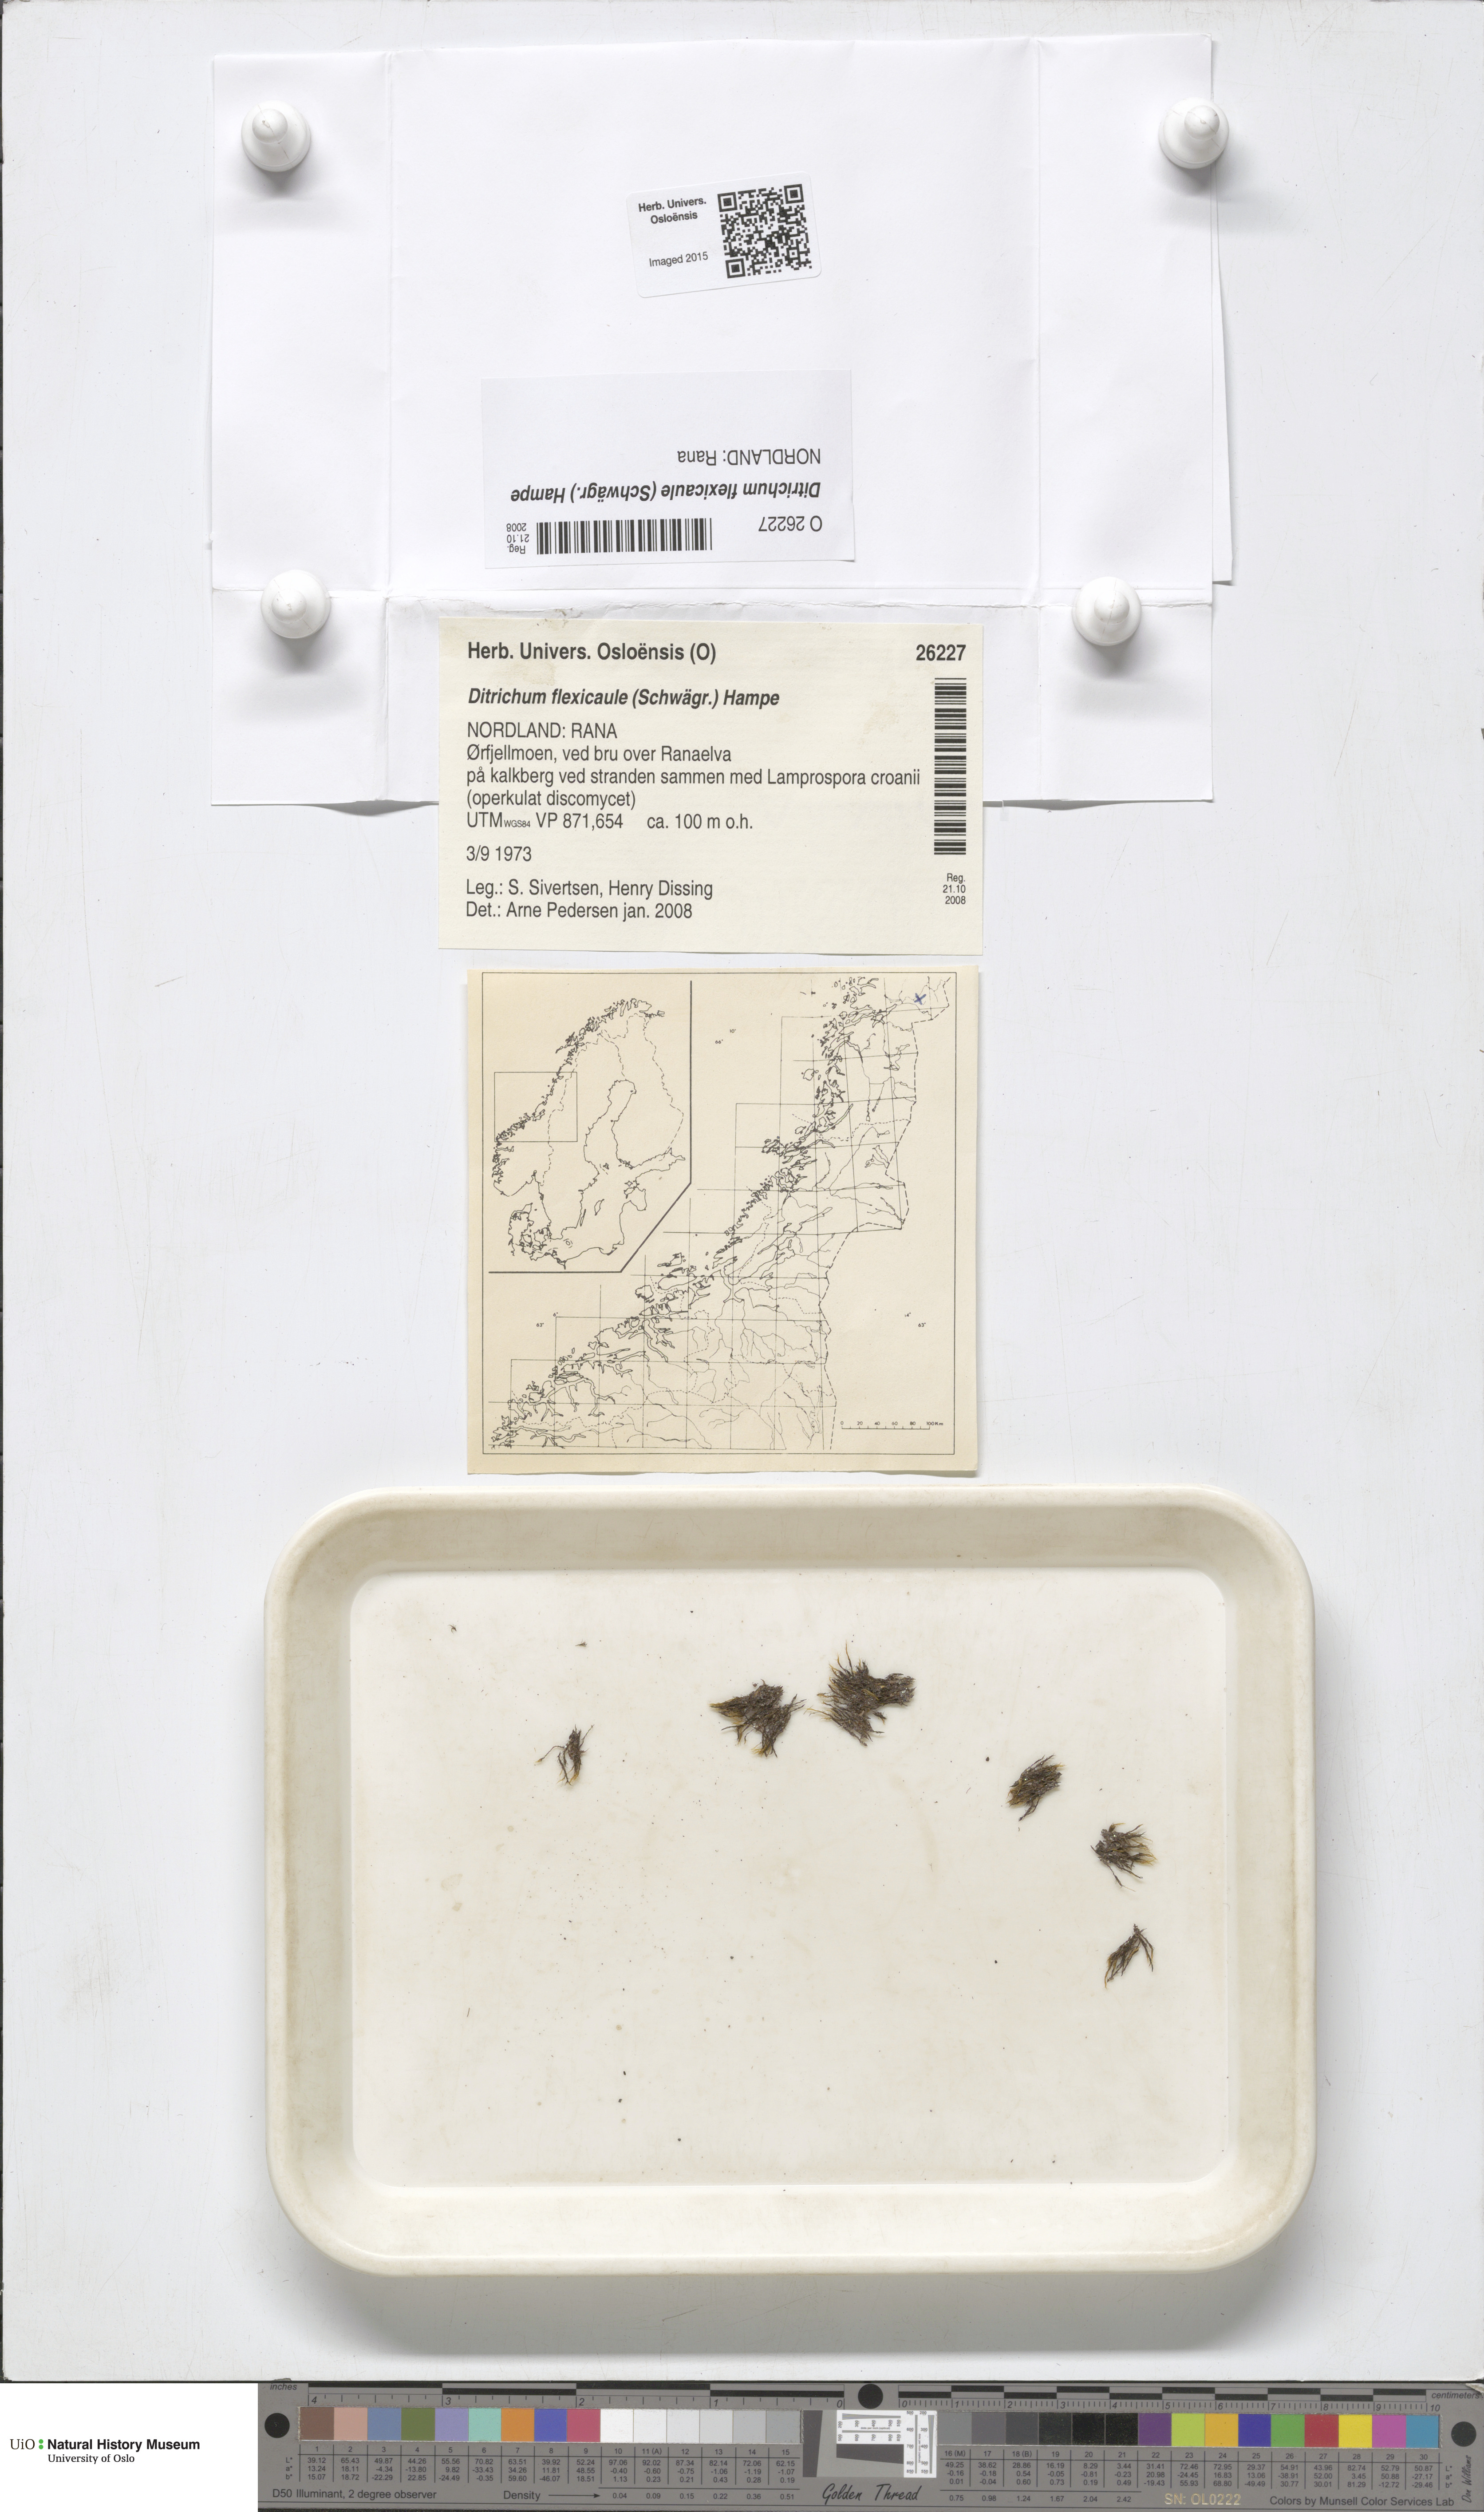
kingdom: Plantae
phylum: Bryophyta
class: Bryopsida
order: Scouleriales
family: Flexitrichaceae
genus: Flexitrichum
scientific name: Flexitrichum flexicaule
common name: Bendy ditrichum
